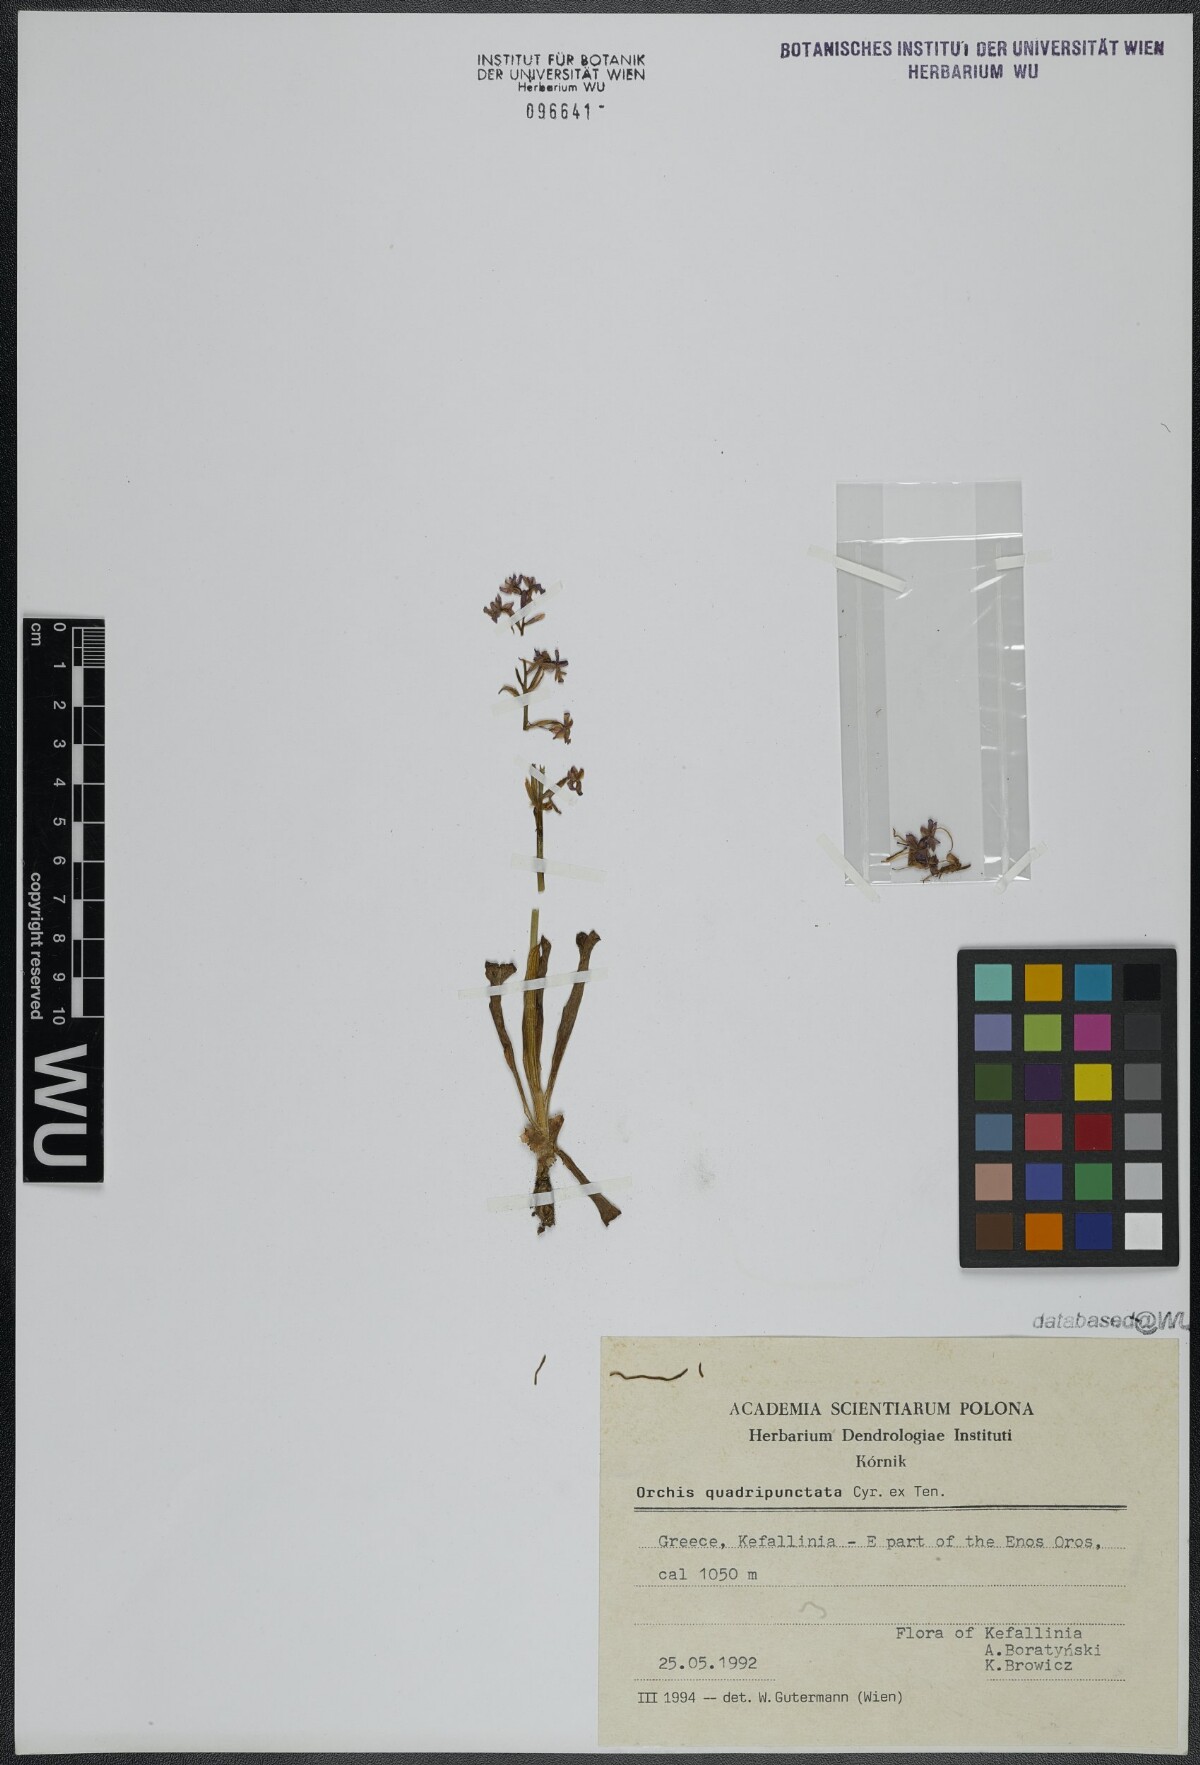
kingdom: Plantae
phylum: Tracheophyta
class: Liliopsida
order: Asparagales
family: Orchidaceae
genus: Orchis
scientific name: Orchis quadripunctata
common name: Four-spotted orchid
